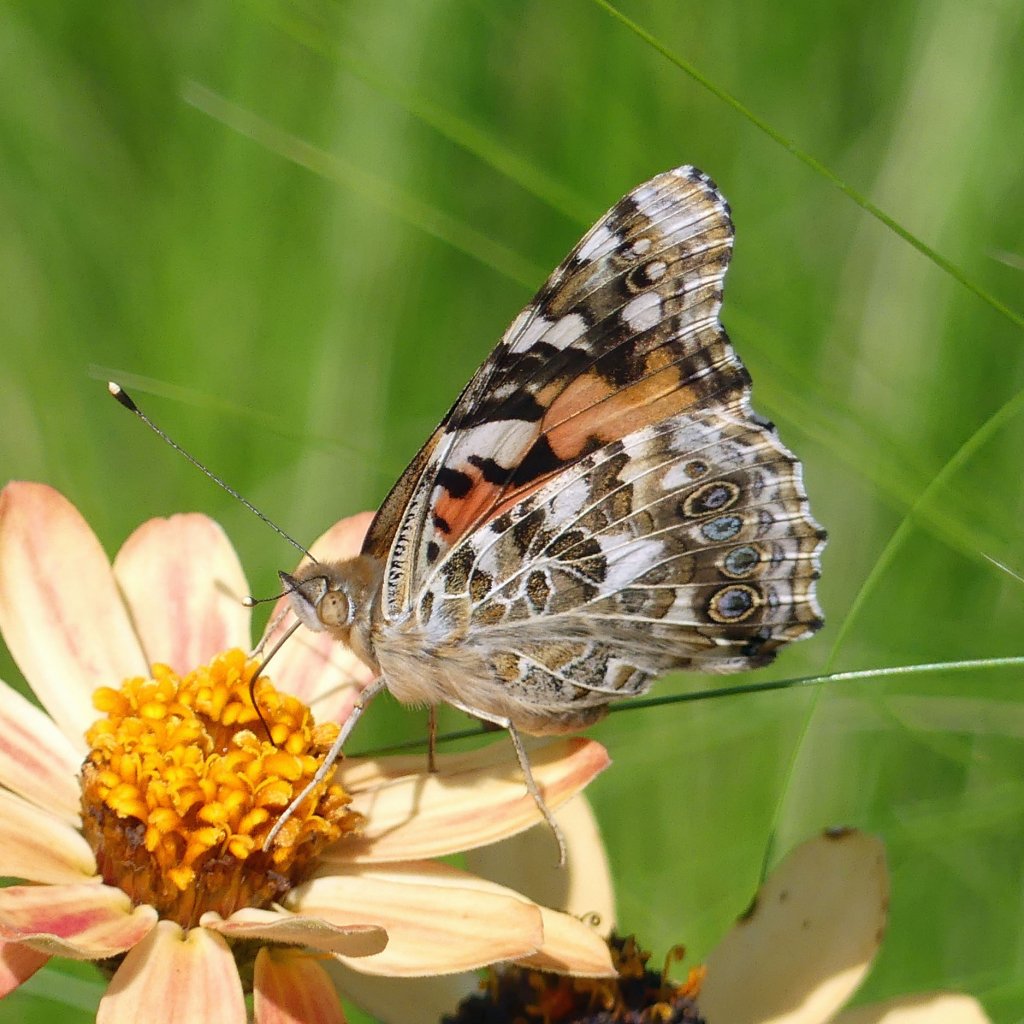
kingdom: Animalia
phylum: Arthropoda
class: Insecta
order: Lepidoptera
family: Nymphalidae
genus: Vanessa
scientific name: Vanessa cardui
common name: Painted Lady
